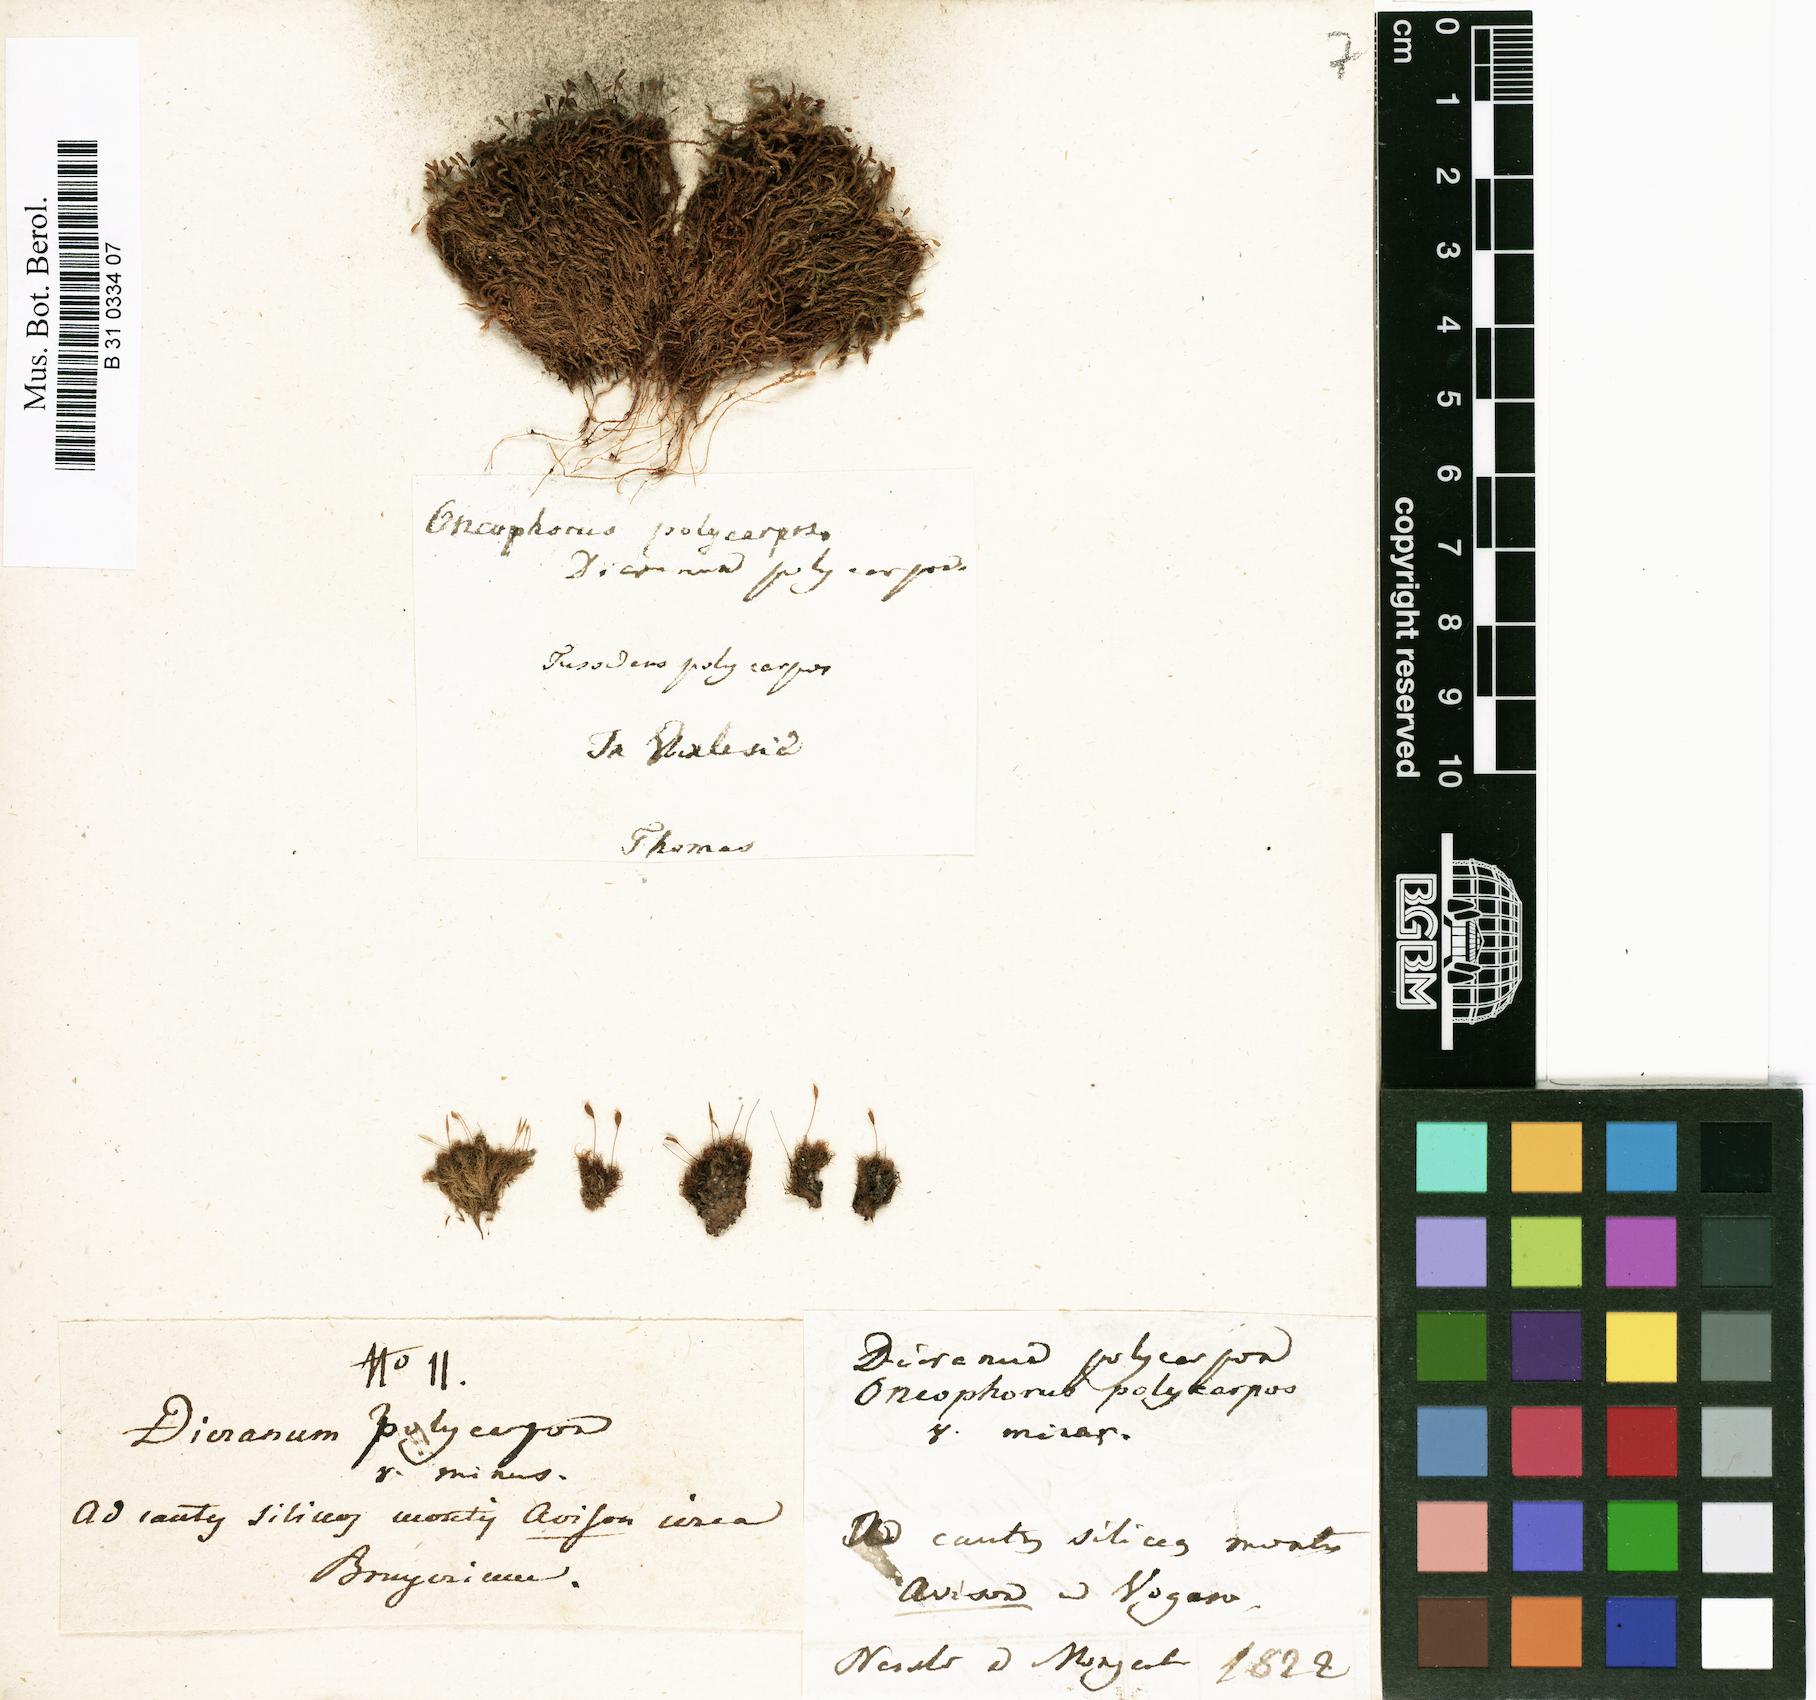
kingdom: Plantae
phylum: Bryophyta
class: Bryopsida
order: Dicranales
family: Rhabdoweisiaceae
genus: Cynodontium
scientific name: Cynodontium polycarpon
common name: Many-fruited dogtooth moss
